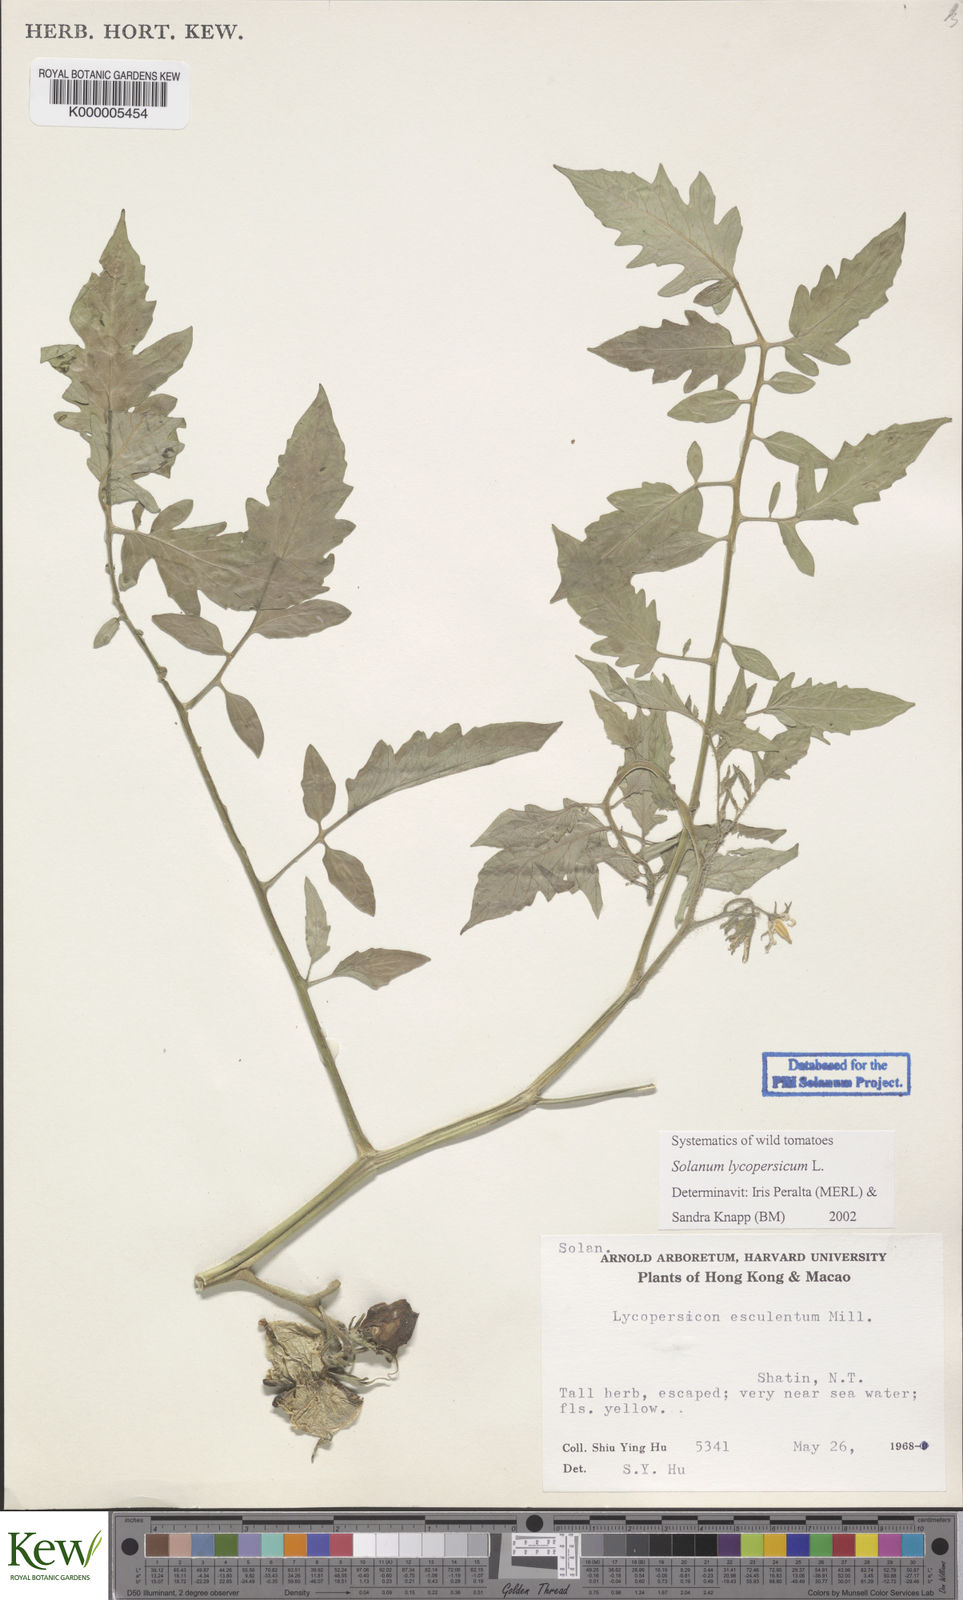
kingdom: Plantae
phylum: Tracheophyta
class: Magnoliopsida
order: Solanales
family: Solanaceae
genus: Solanum
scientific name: Solanum lycopersicum
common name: Garden tomato
